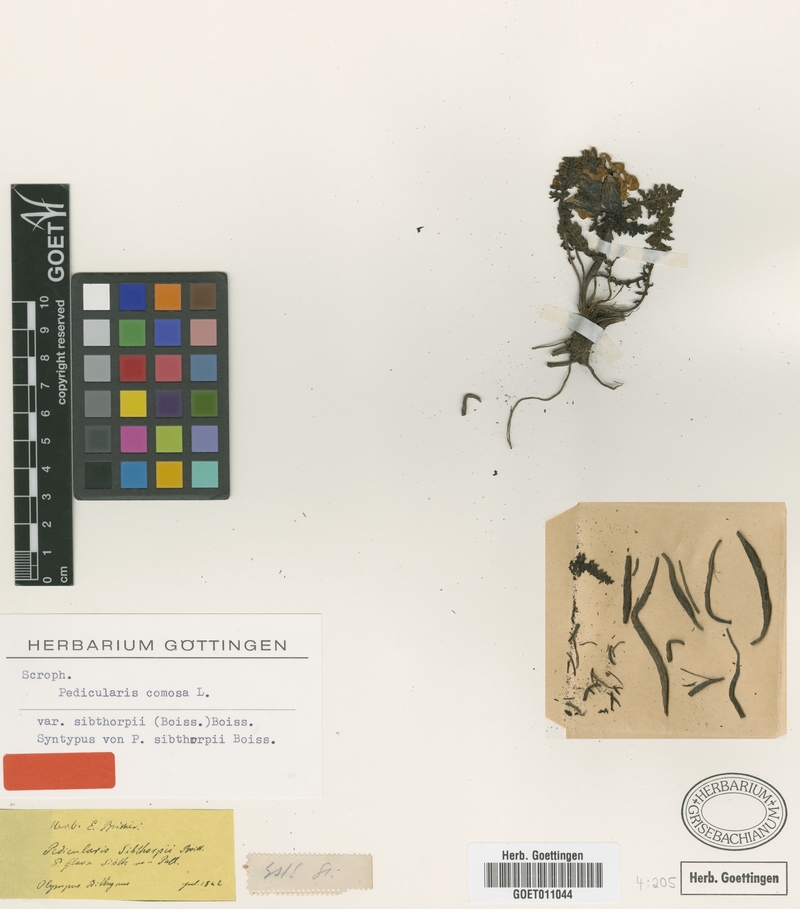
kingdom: Plantae
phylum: Tracheophyta
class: Magnoliopsida
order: Lamiales
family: Orobanchaceae
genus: Pedicularis
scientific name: Pedicularis sibthorpii
